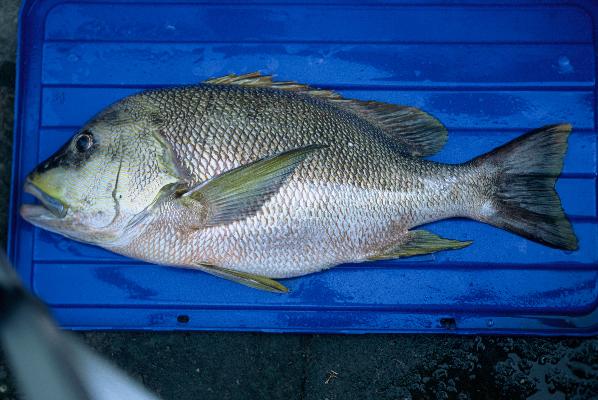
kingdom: Animalia
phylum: Chordata
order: Perciformes
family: Lutjanidae
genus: Lutjanus
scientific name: Lutjanus rivulatus
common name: Blubberlip snapper
